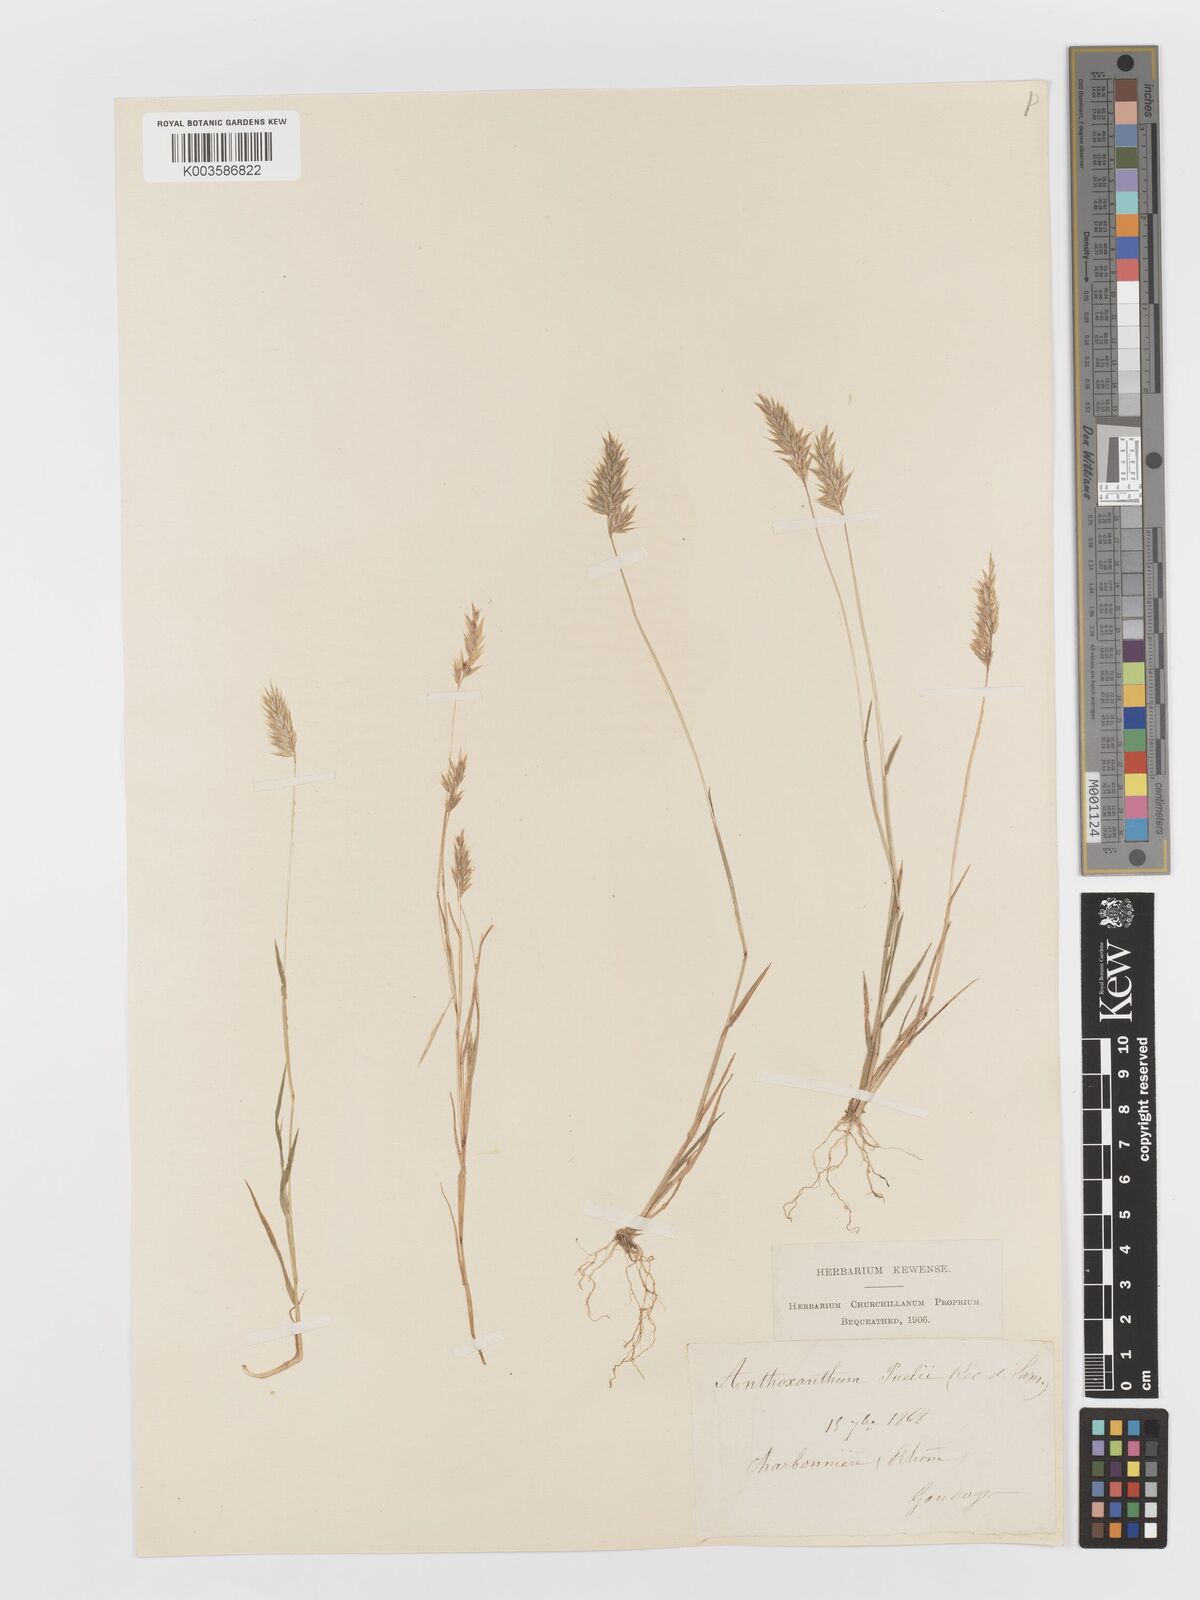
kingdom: Plantae
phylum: Tracheophyta
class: Liliopsida
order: Poales
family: Poaceae
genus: Anthoxanthum
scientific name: Anthoxanthum
